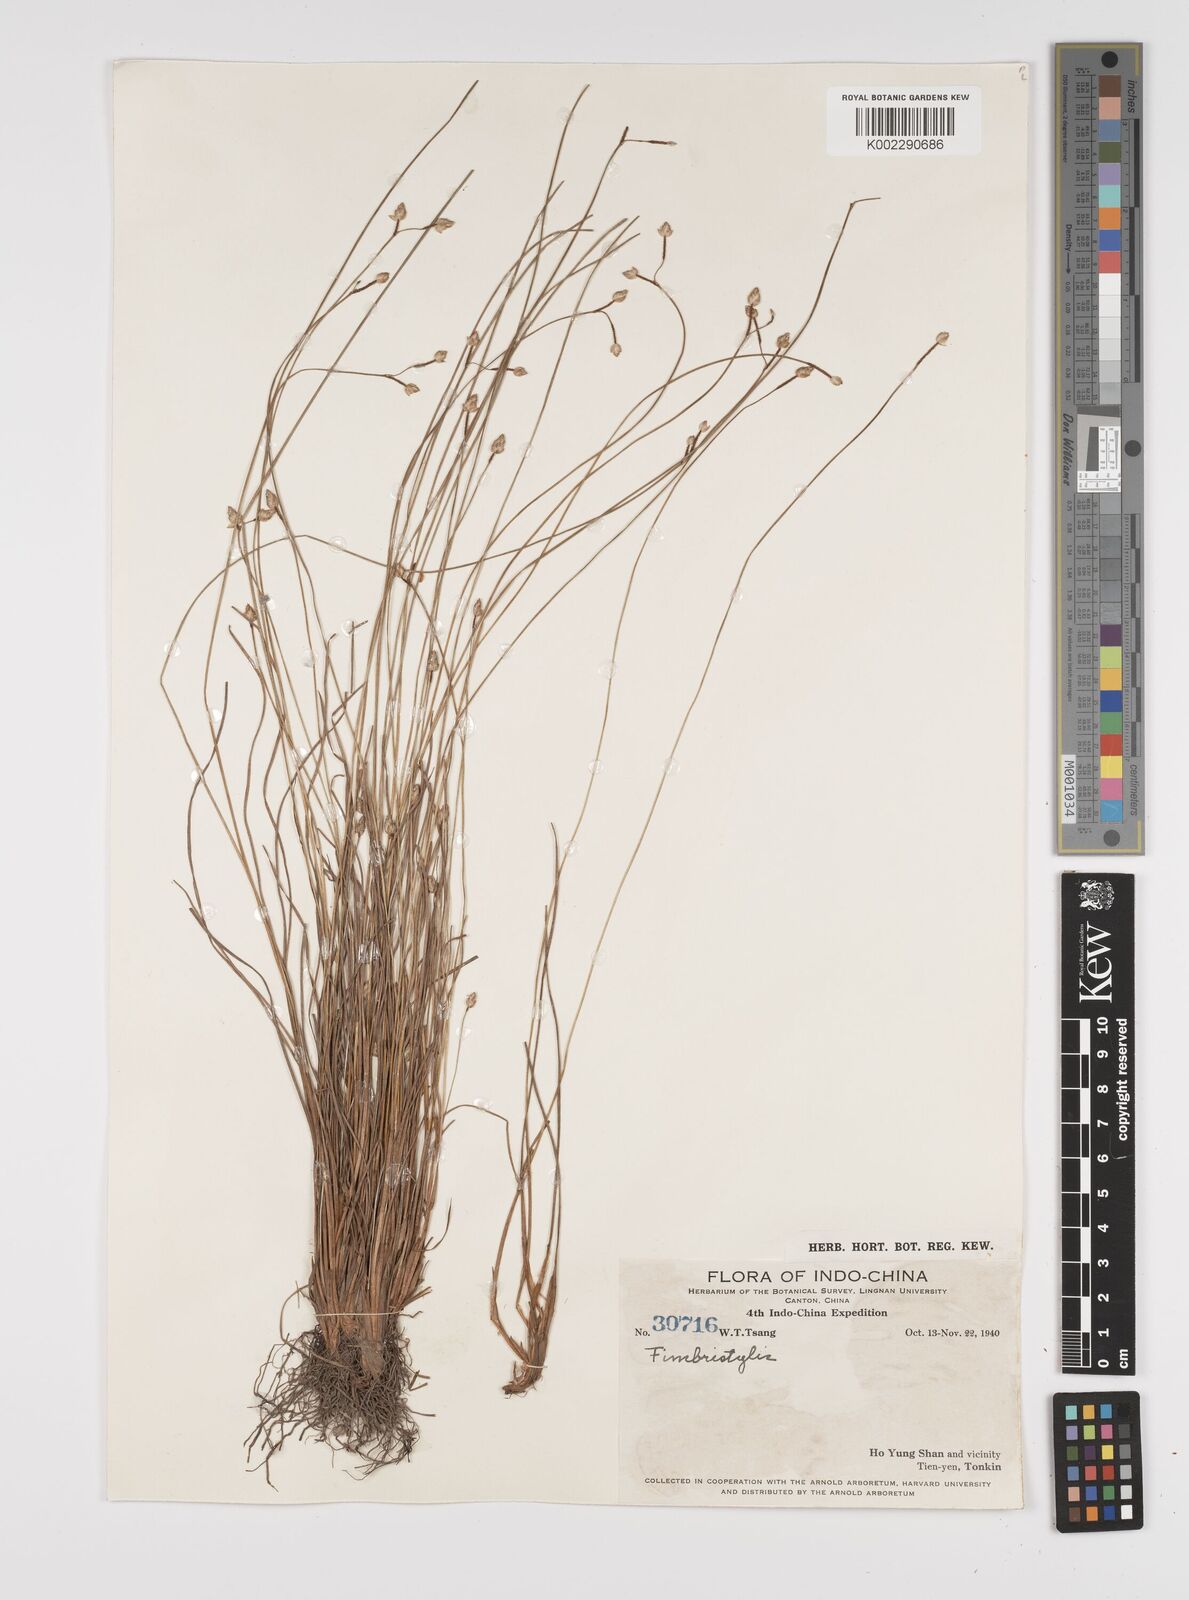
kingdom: Plantae
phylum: Tracheophyta
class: Liliopsida
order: Poales
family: Cyperaceae
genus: Fimbristylis
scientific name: Fimbristylis
